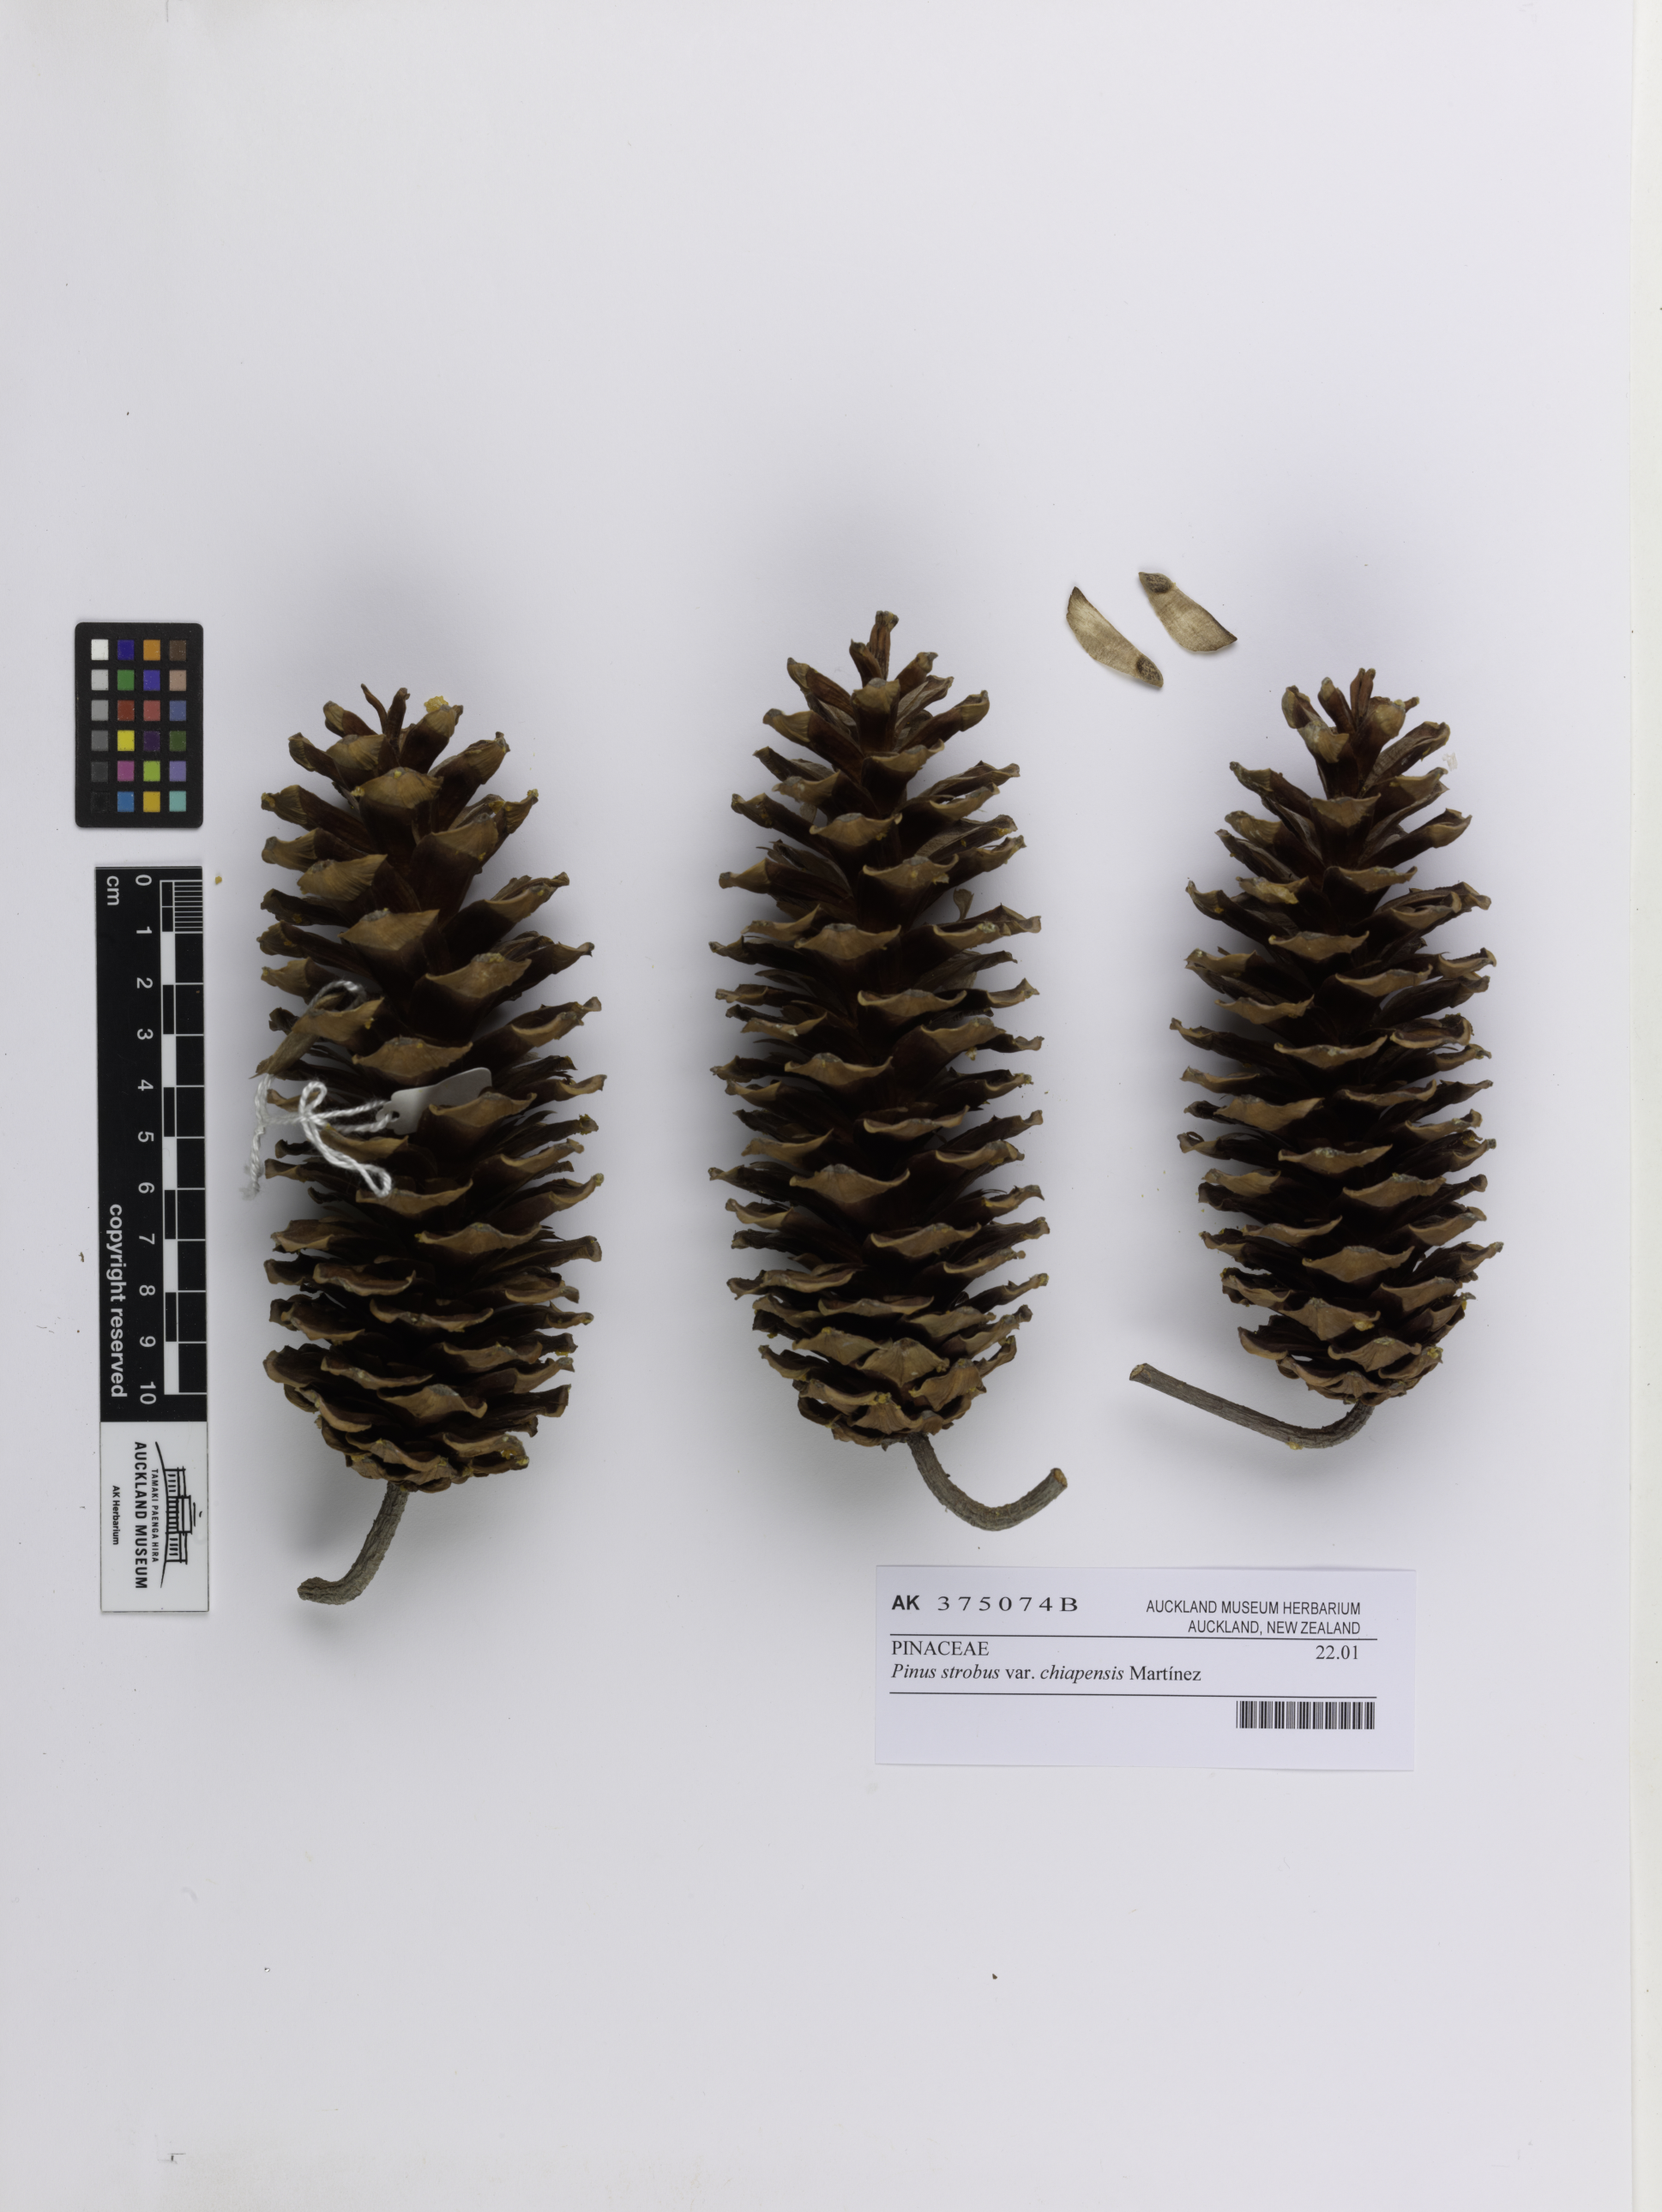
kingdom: Plantae
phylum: Tracheophyta
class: Pinopsida
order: Pinales
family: Pinaceae
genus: Pinus
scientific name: Pinus strobus
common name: Weymouth pine
